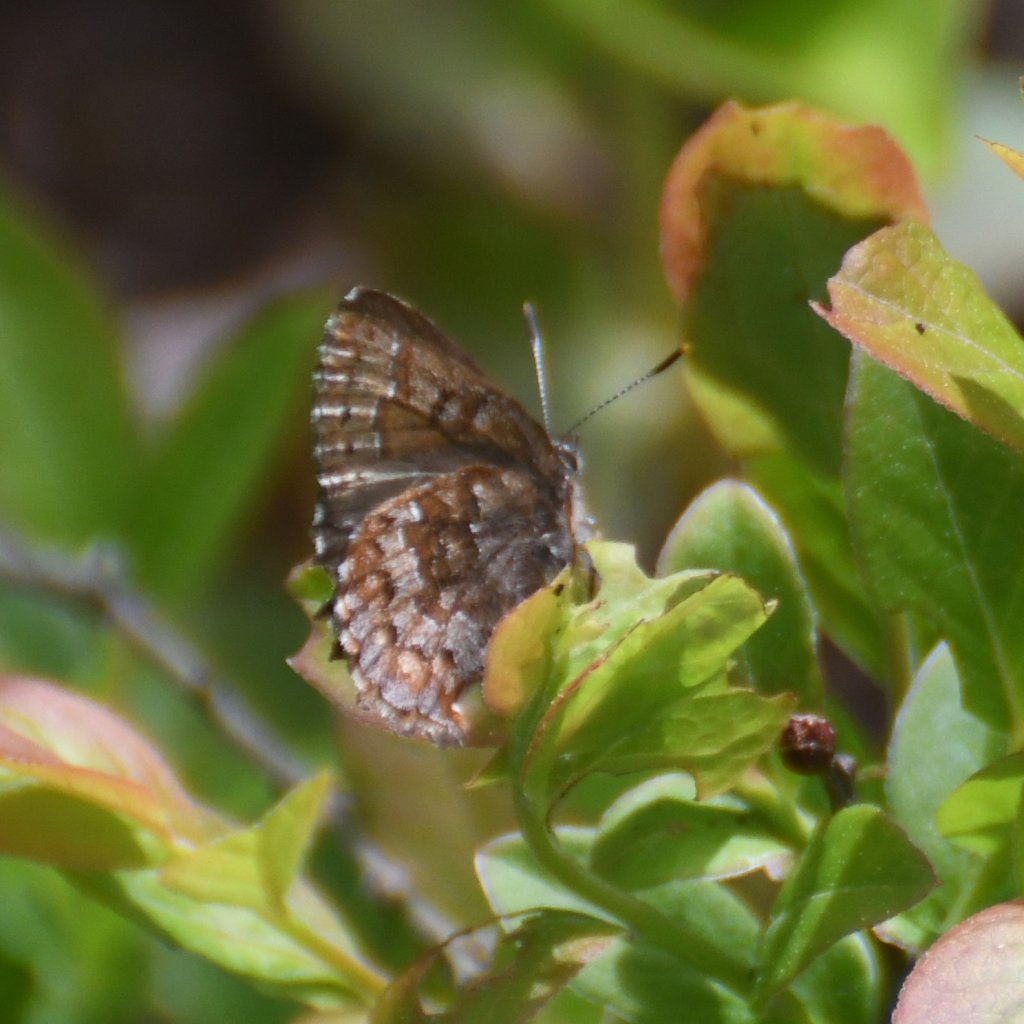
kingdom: Animalia
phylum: Arthropoda
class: Insecta
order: Lepidoptera
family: Lycaenidae
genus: Incisalia
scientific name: Incisalia niphon
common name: Eastern Pine Elfin
